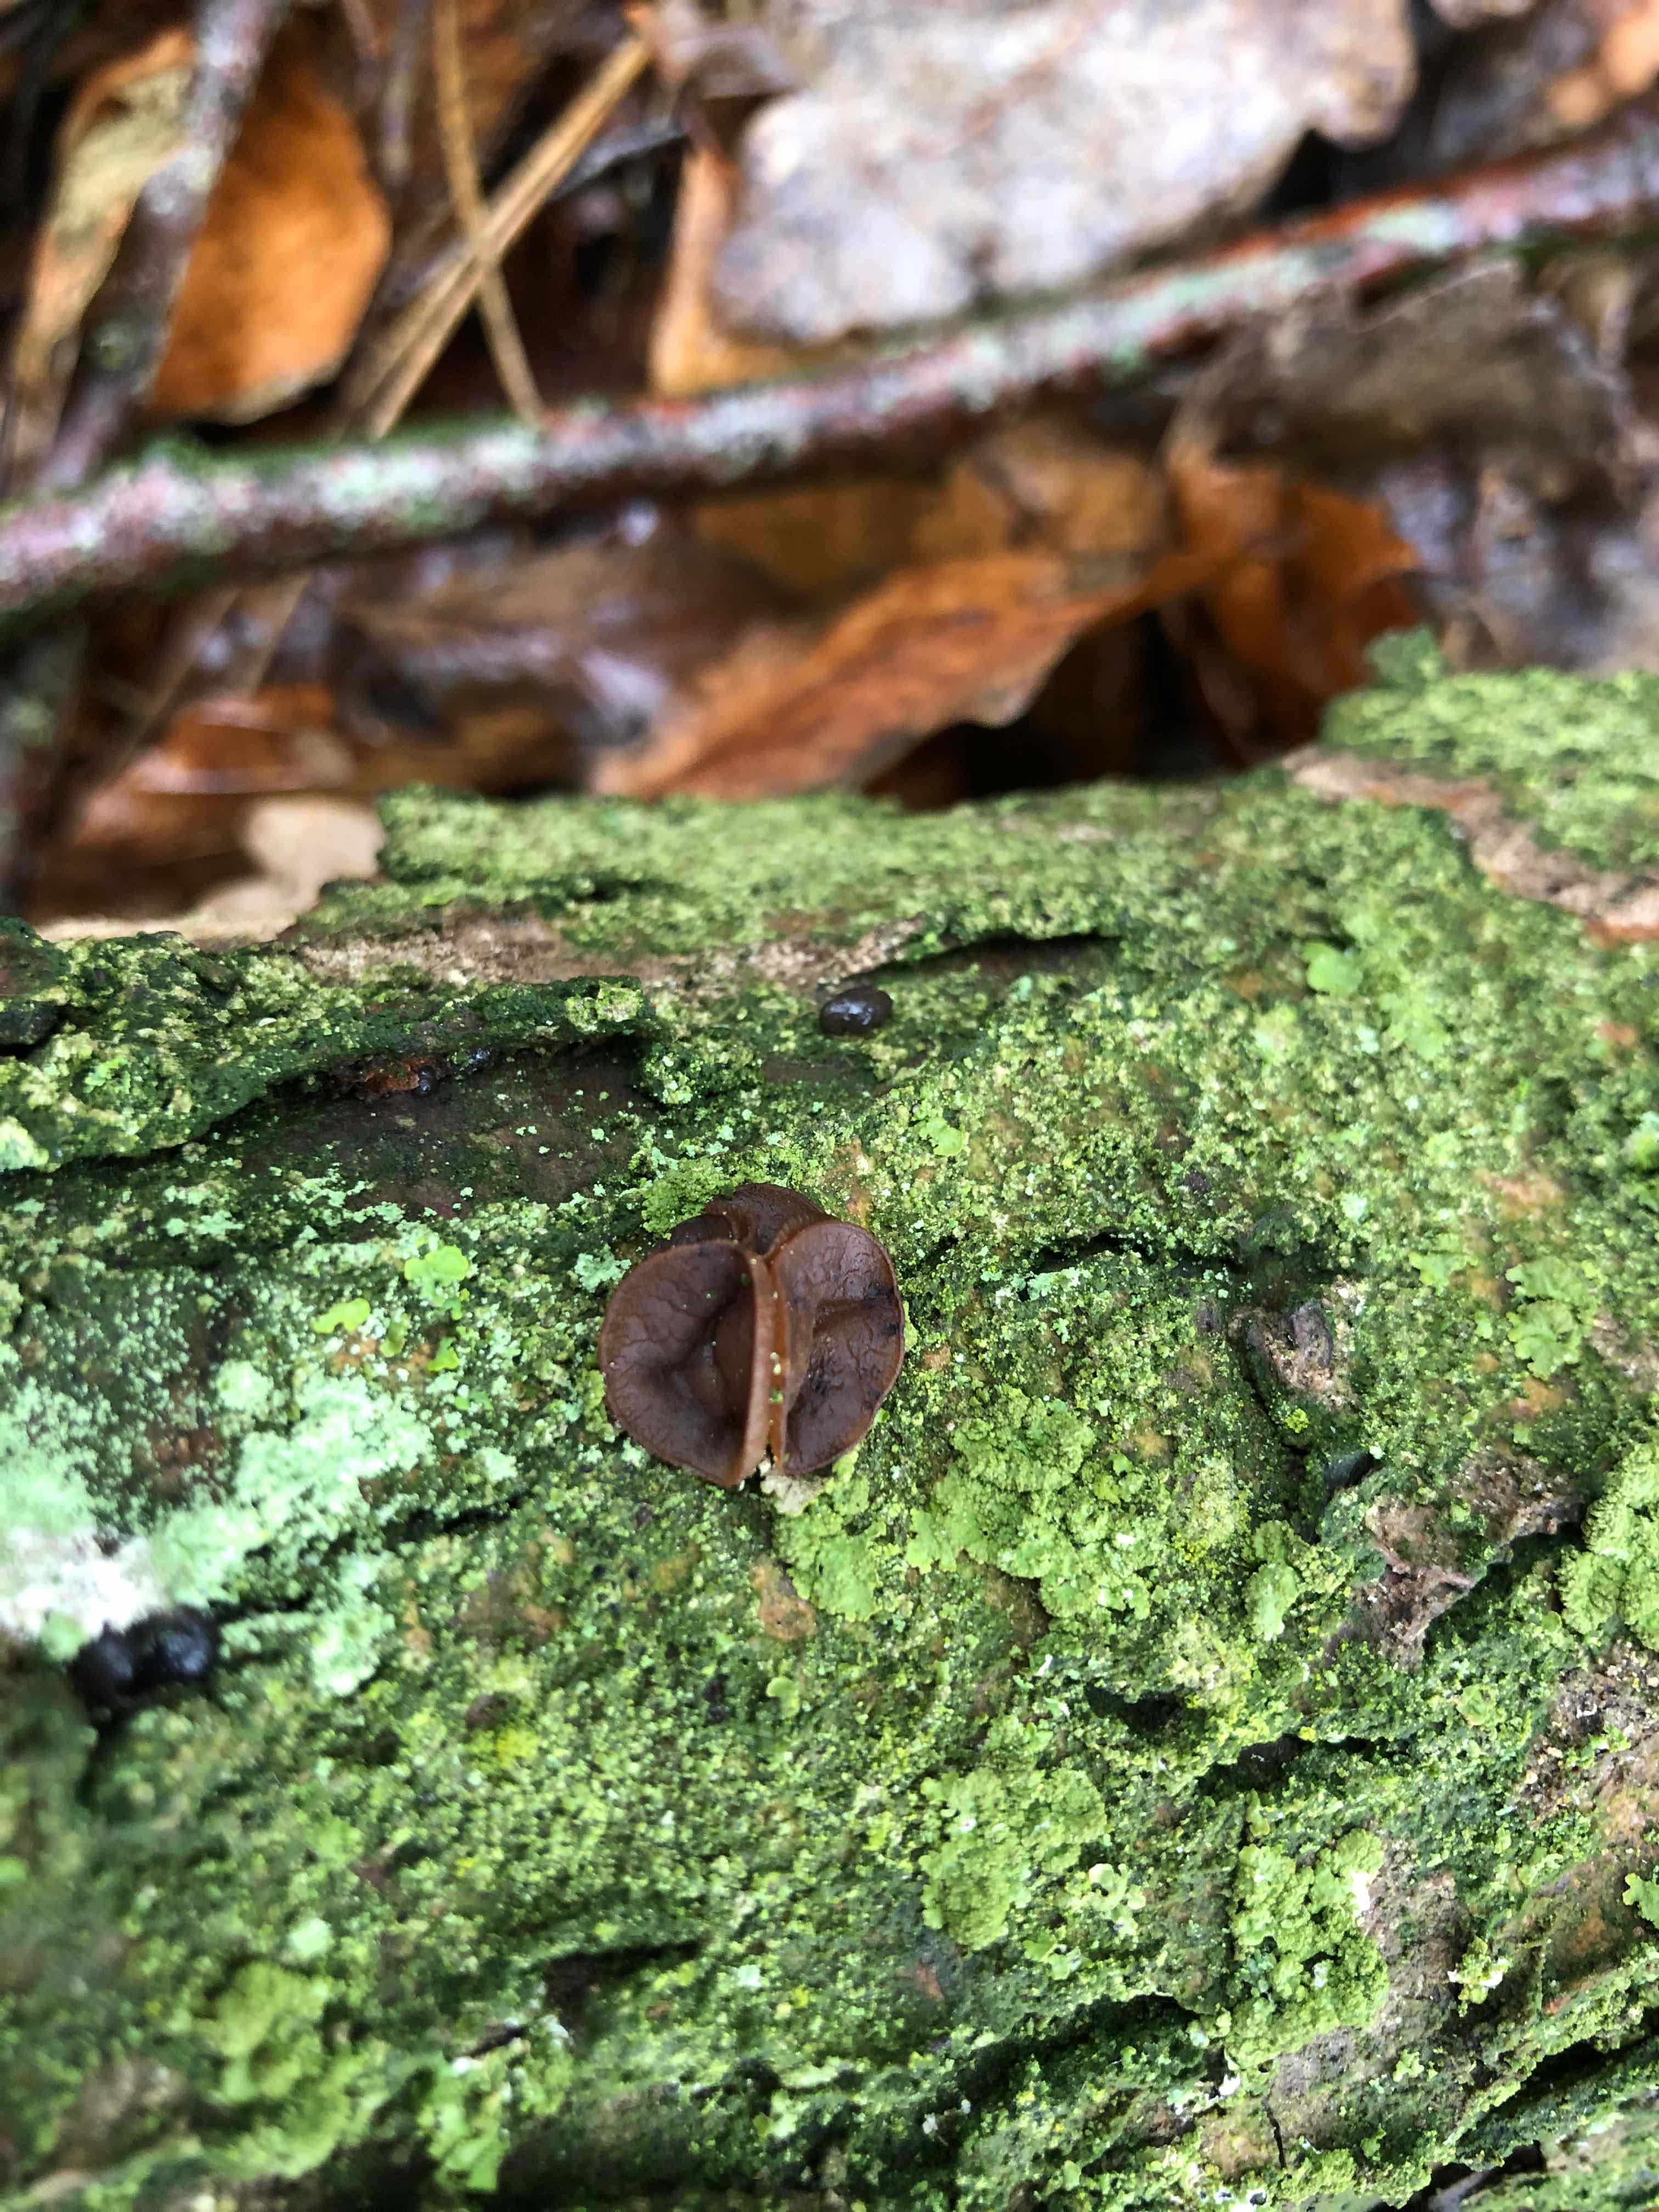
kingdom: Fungi
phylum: Ascomycota
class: Leotiomycetes
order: Helotiales
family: Rutstroemiaceae
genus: Rutstroemia
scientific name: Rutstroemia firma
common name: gren-brunskive
